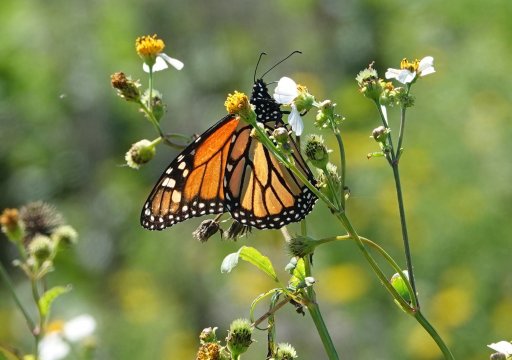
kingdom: Animalia
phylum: Arthropoda
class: Insecta
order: Lepidoptera
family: Nymphalidae
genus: Danaus
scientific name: Danaus plexippus
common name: Monarch
